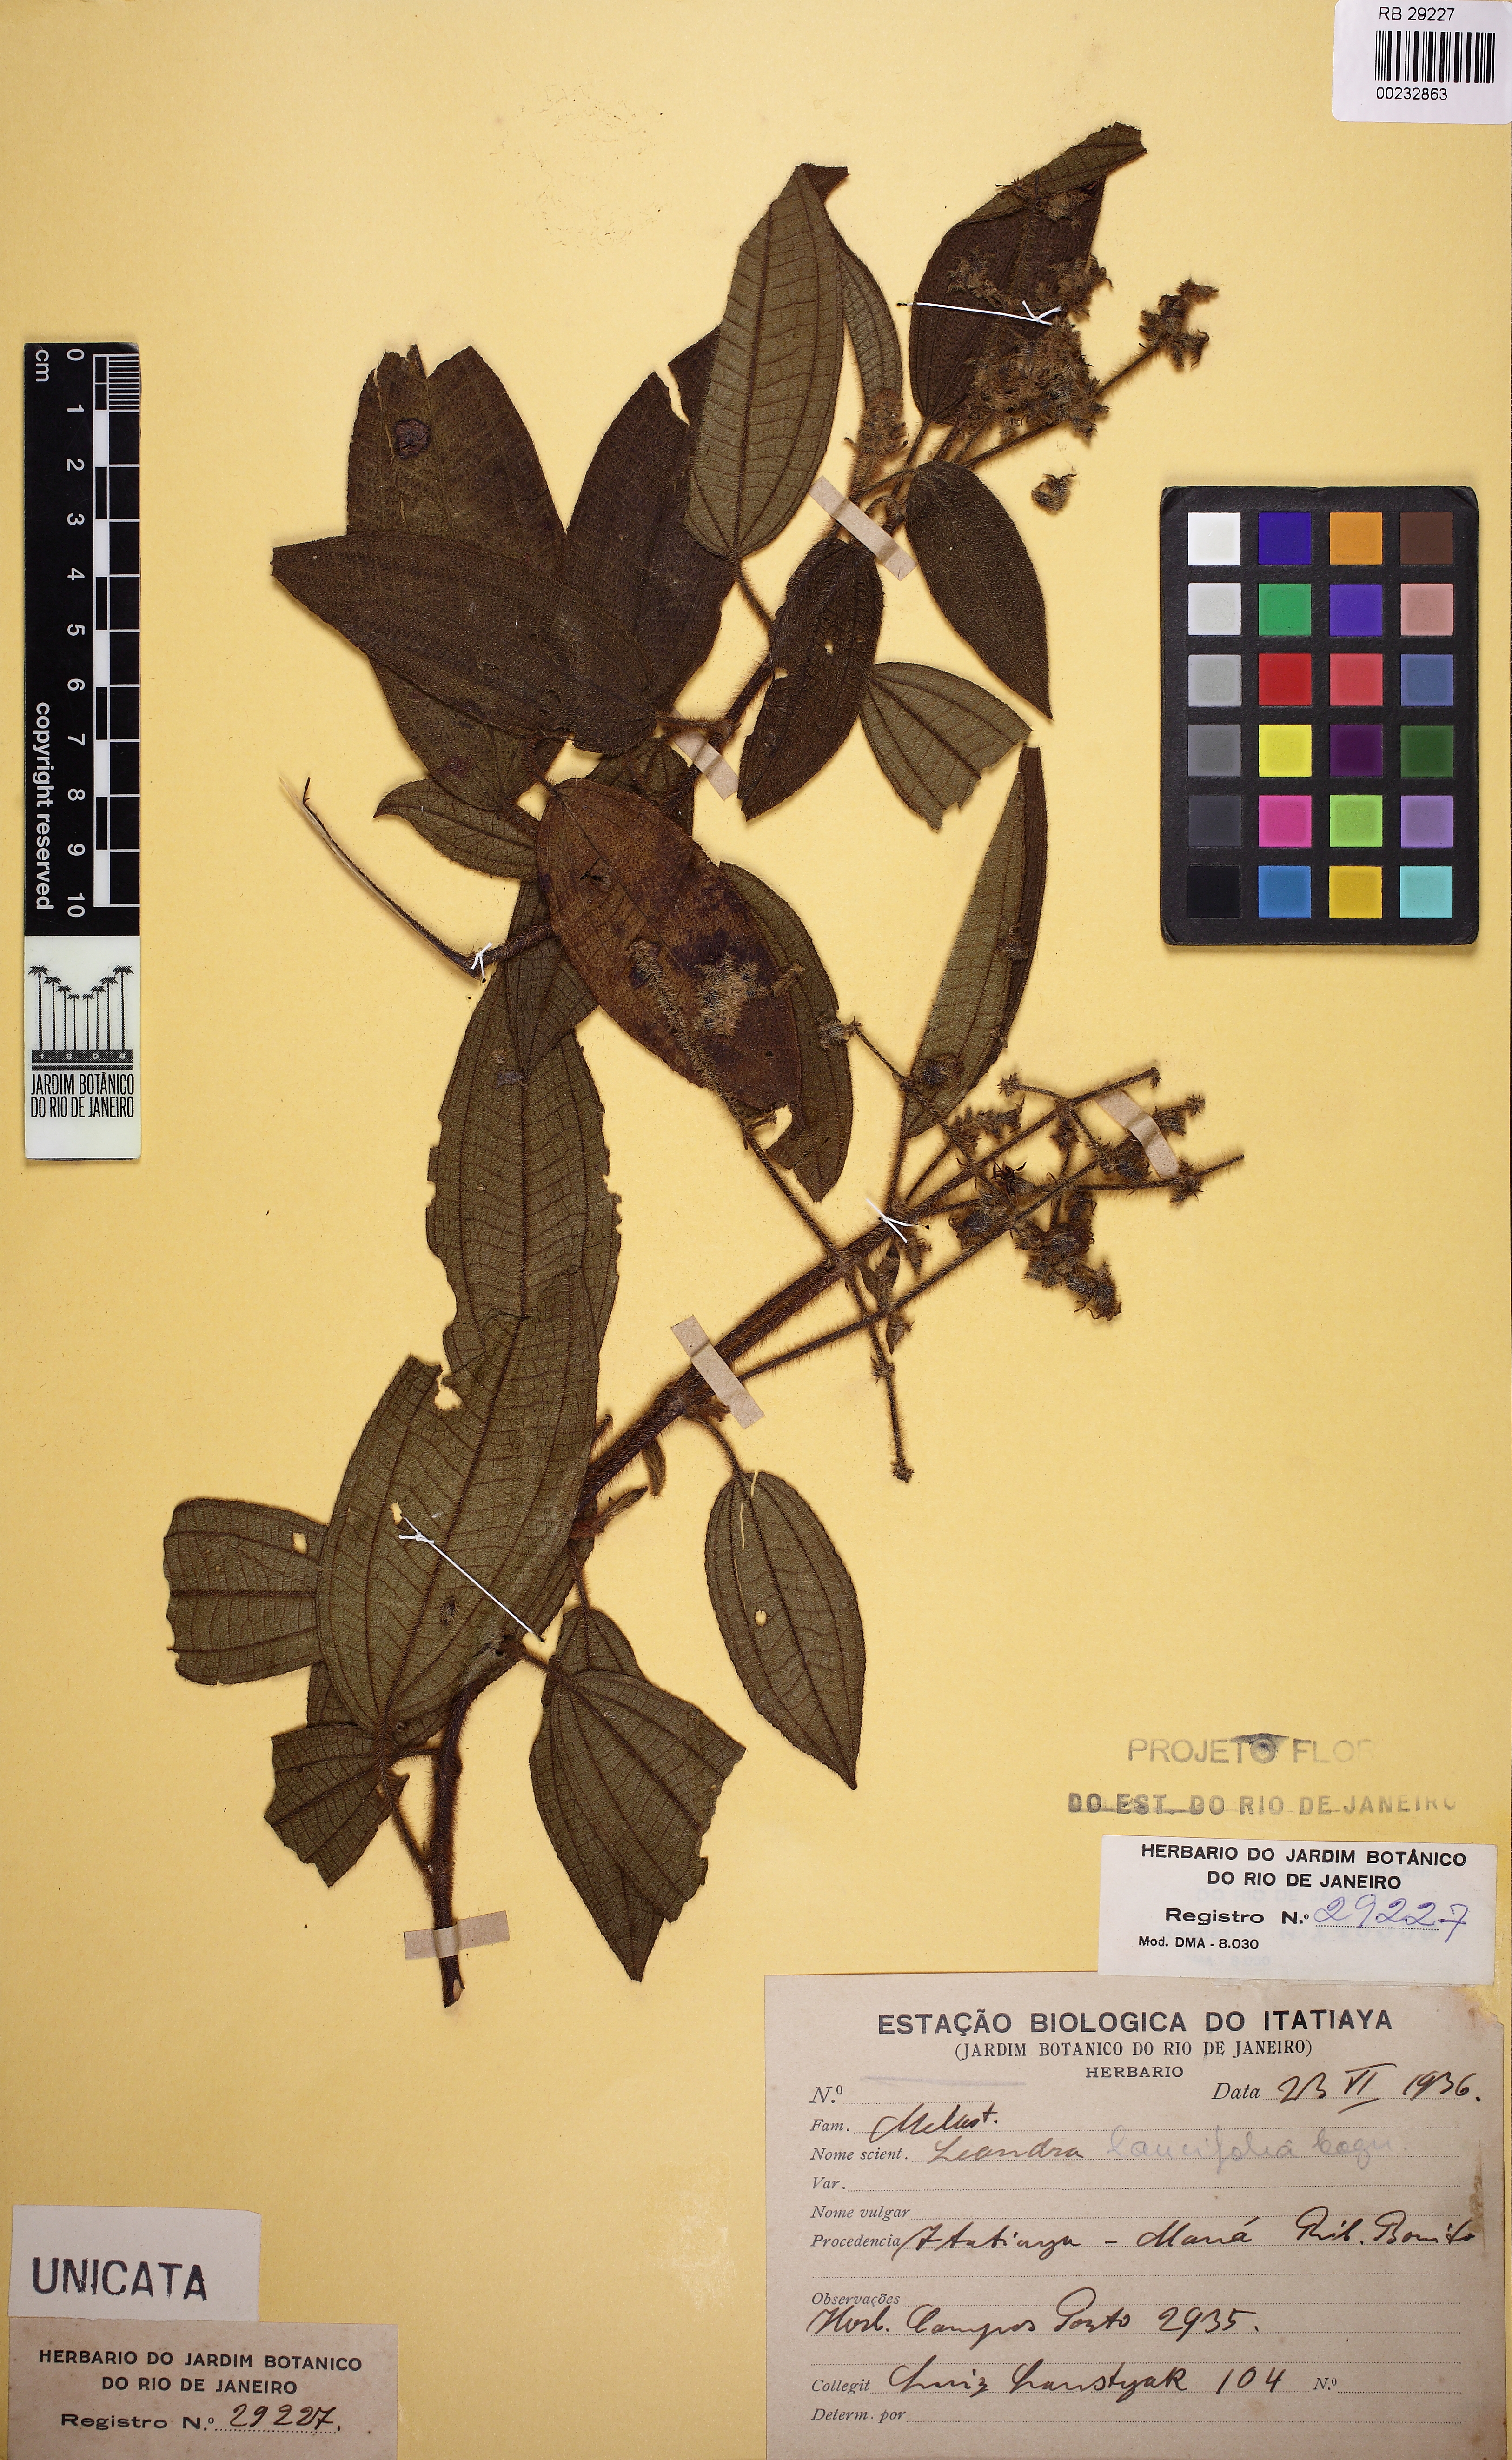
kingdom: Plantae
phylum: Tracheophyta
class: Magnoliopsida
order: Myrtales
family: Melastomataceae
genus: Miconia
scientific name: Miconia lealancifolia
